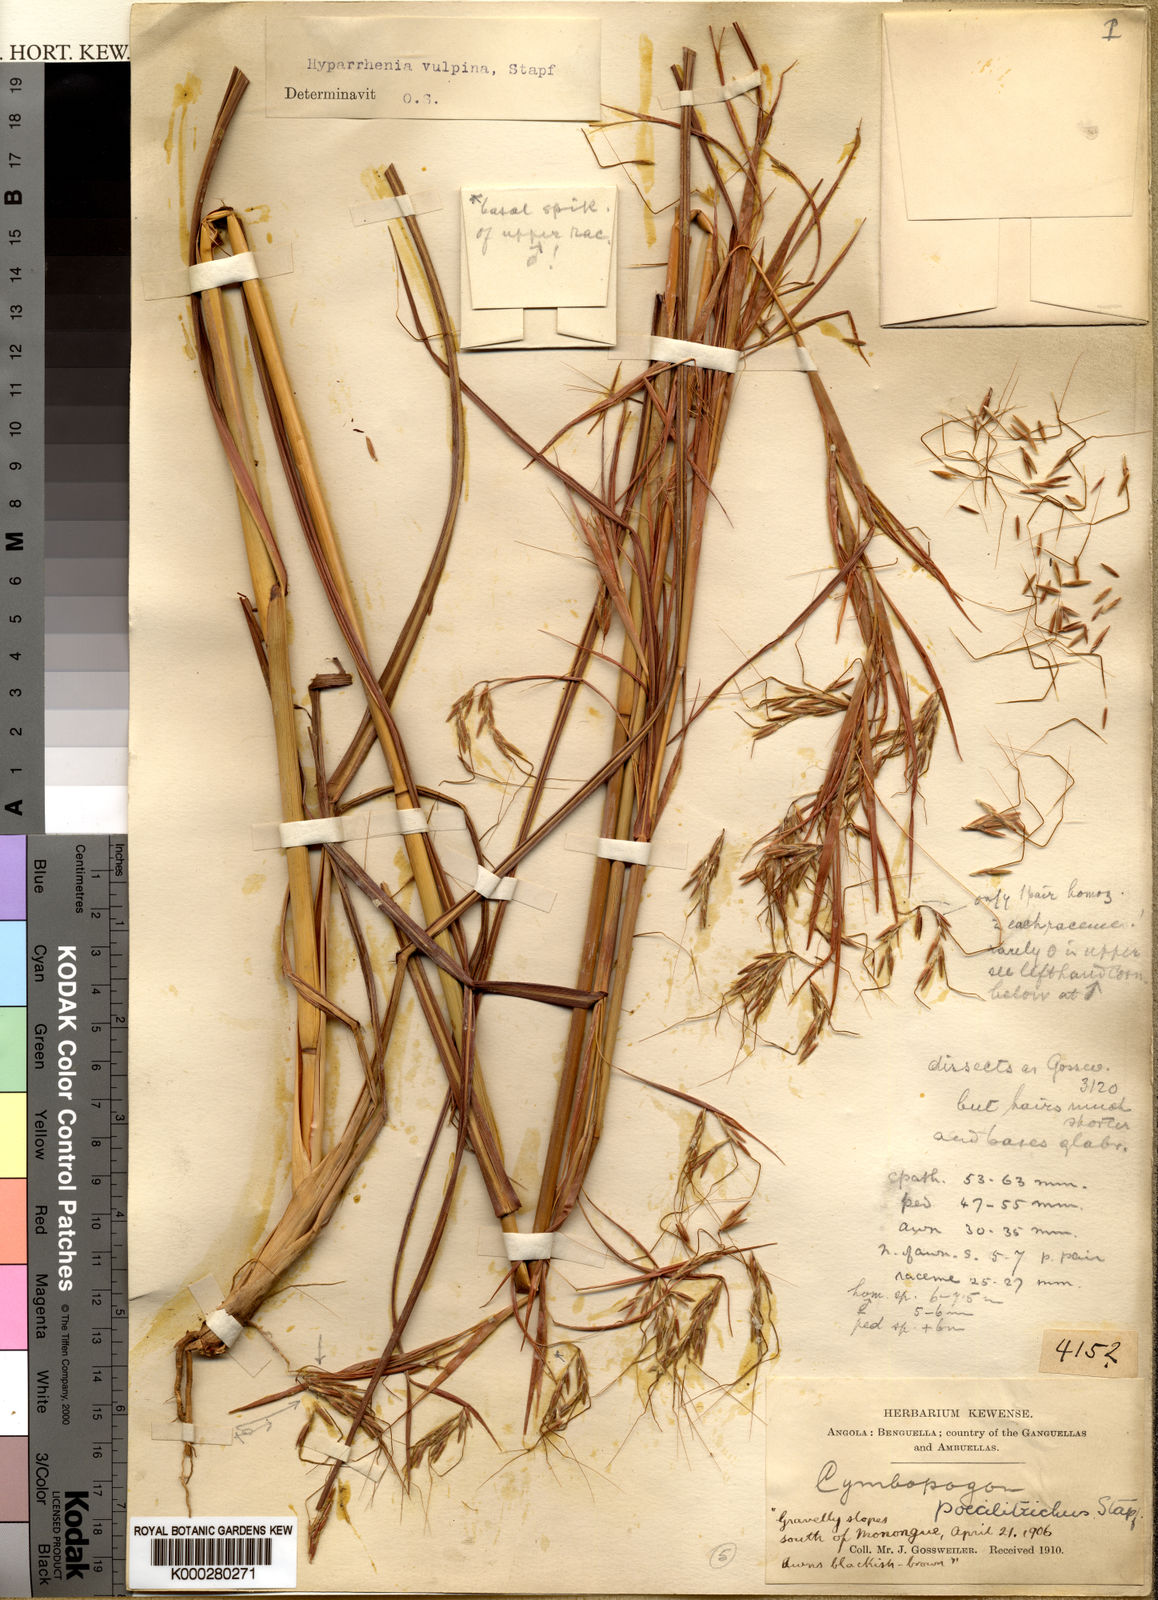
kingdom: Plantae
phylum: Tracheophyta
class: Liliopsida
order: Poales
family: Poaceae
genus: Hyparrhenia
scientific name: Hyparrhenia nyassae
